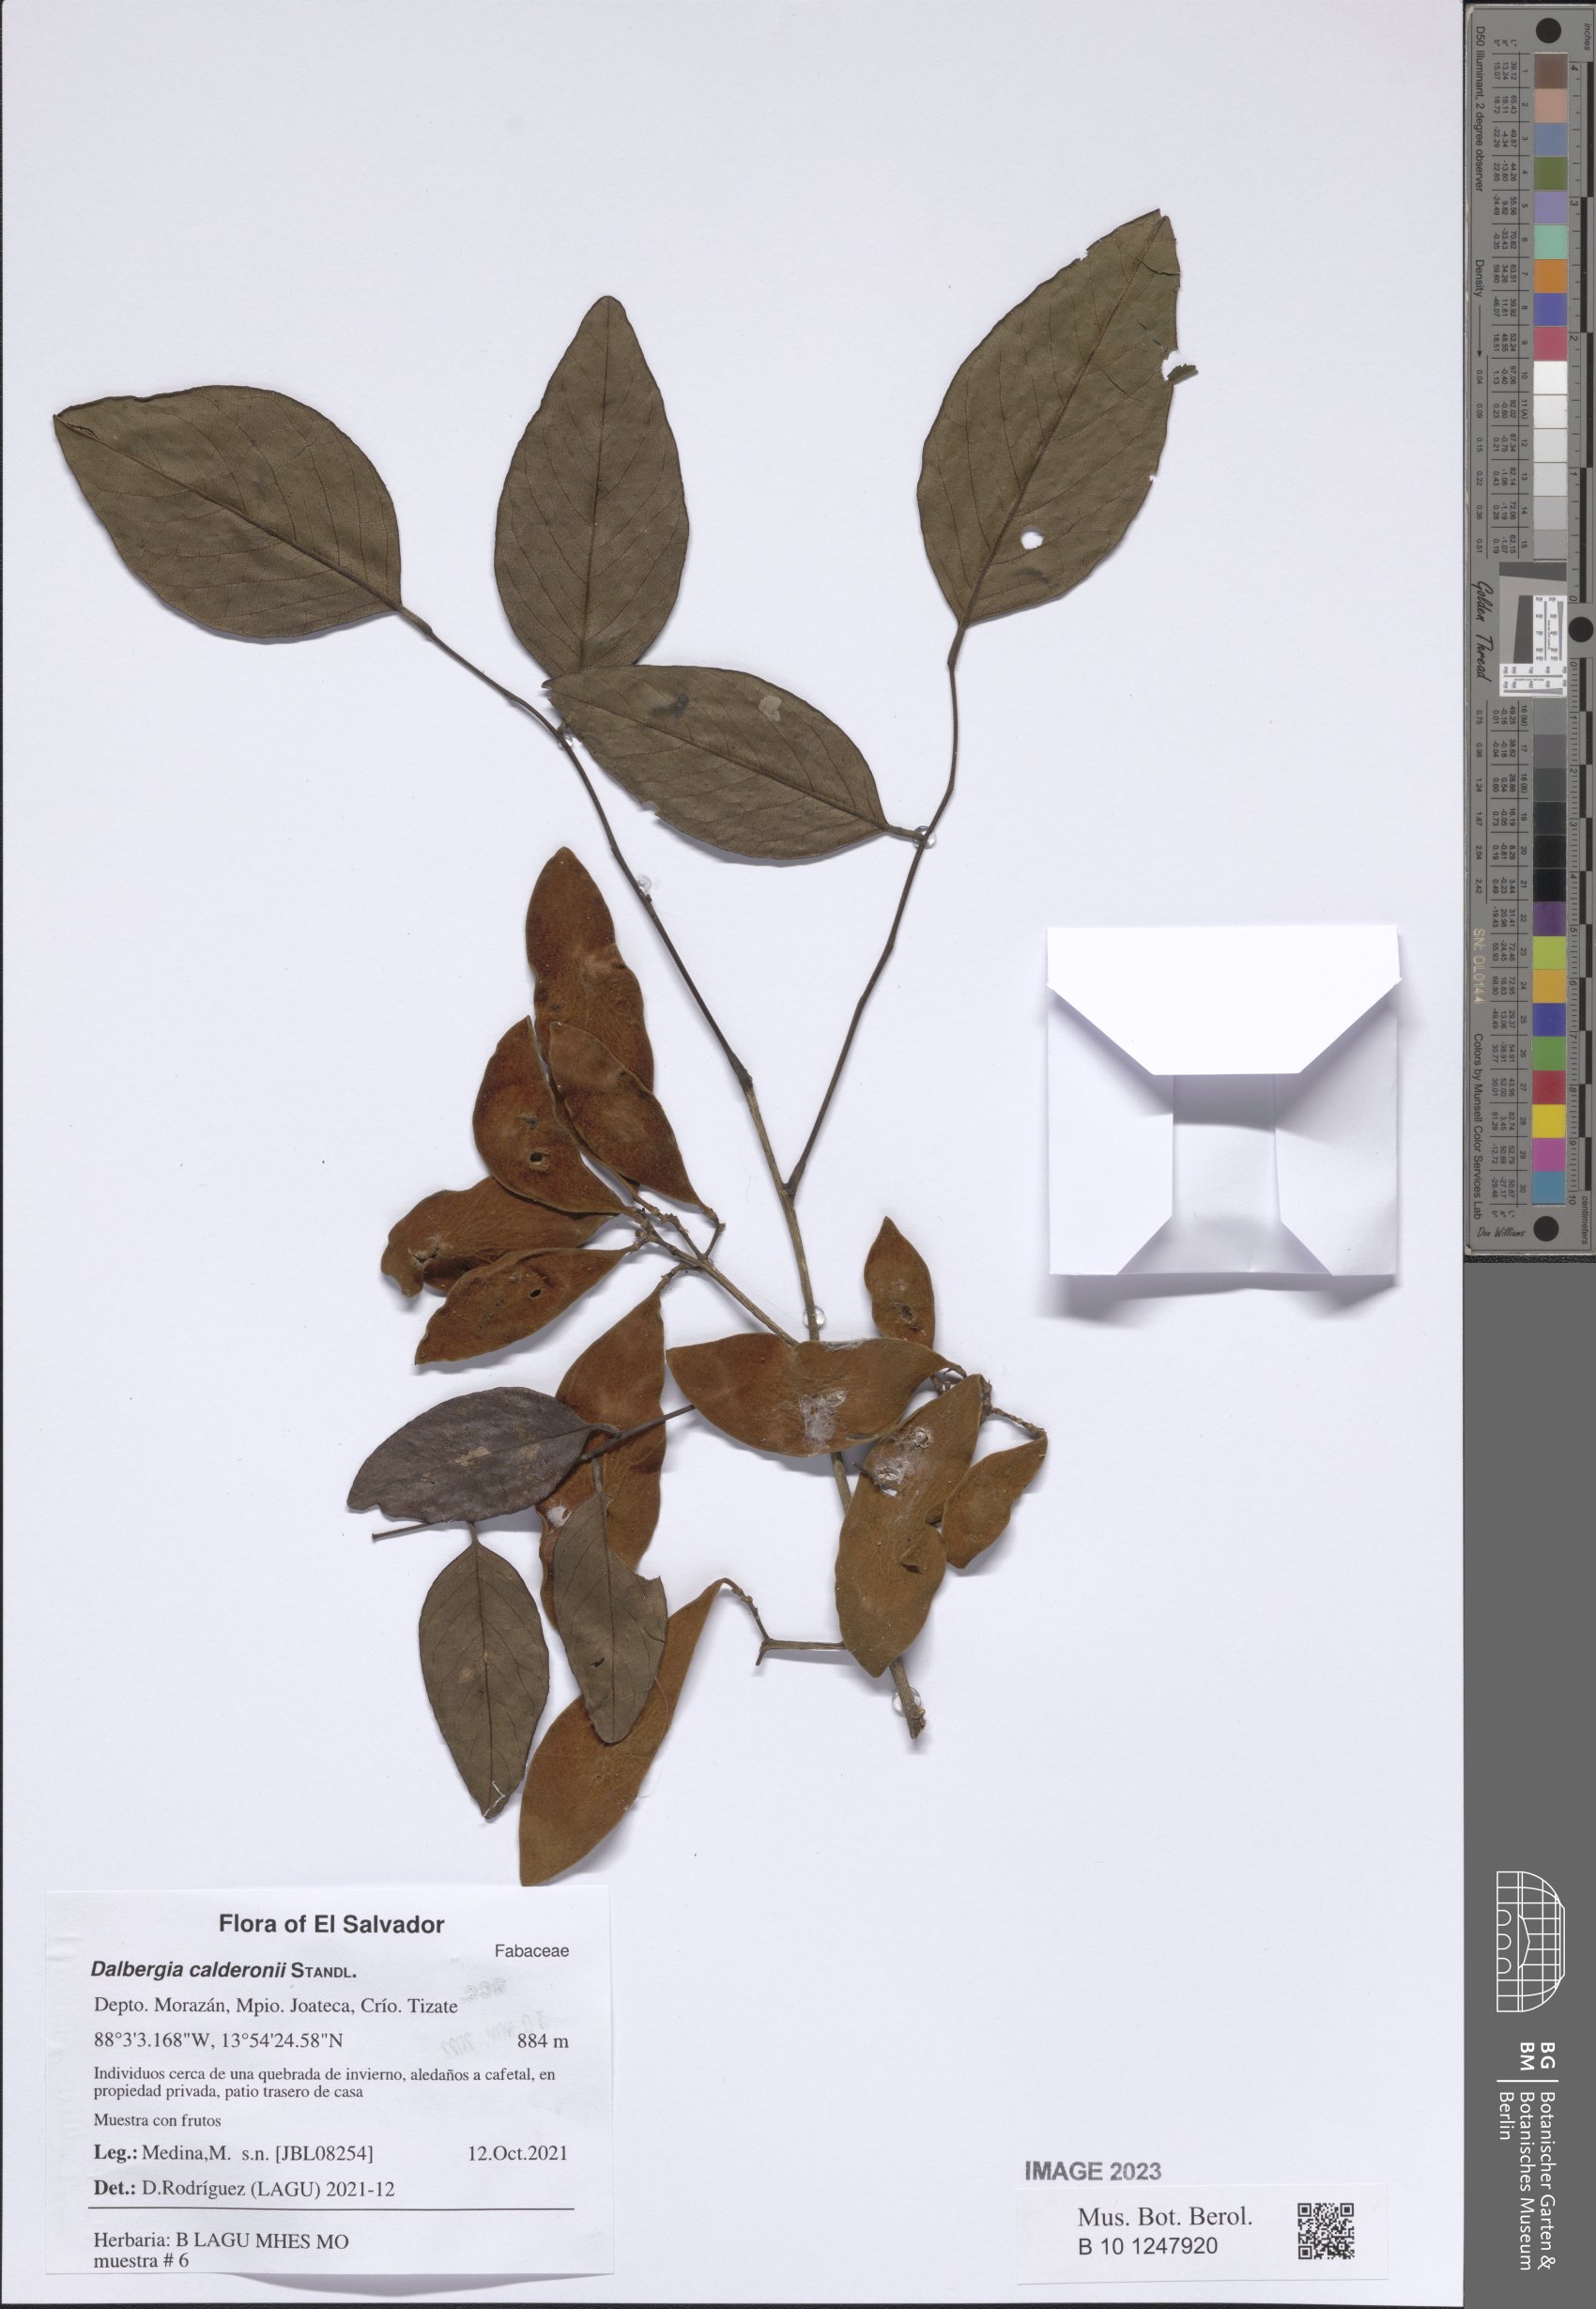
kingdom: Plantae
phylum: Tracheophyta
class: Magnoliopsida
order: Fabales
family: Fabaceae
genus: Dalbergia
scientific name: Dalbergia calderonii
